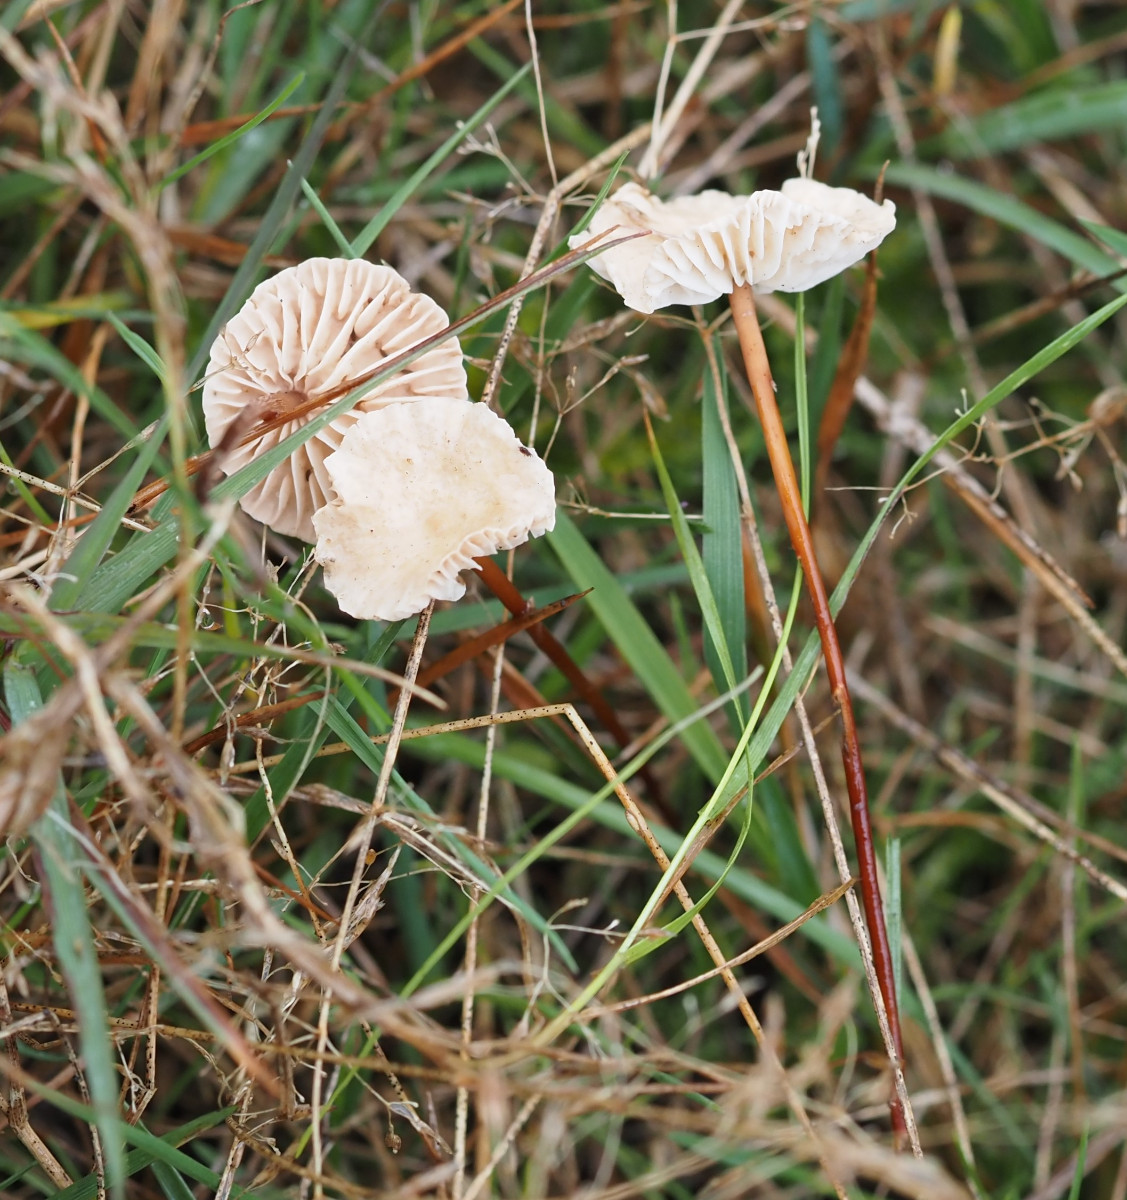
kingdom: Fungi
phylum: Basidiomycota
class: Agaricomycetes
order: Agaricales
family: Omphalotaceae
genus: Mycetinis
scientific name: Mycetinis scorodonius
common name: lille løghat
